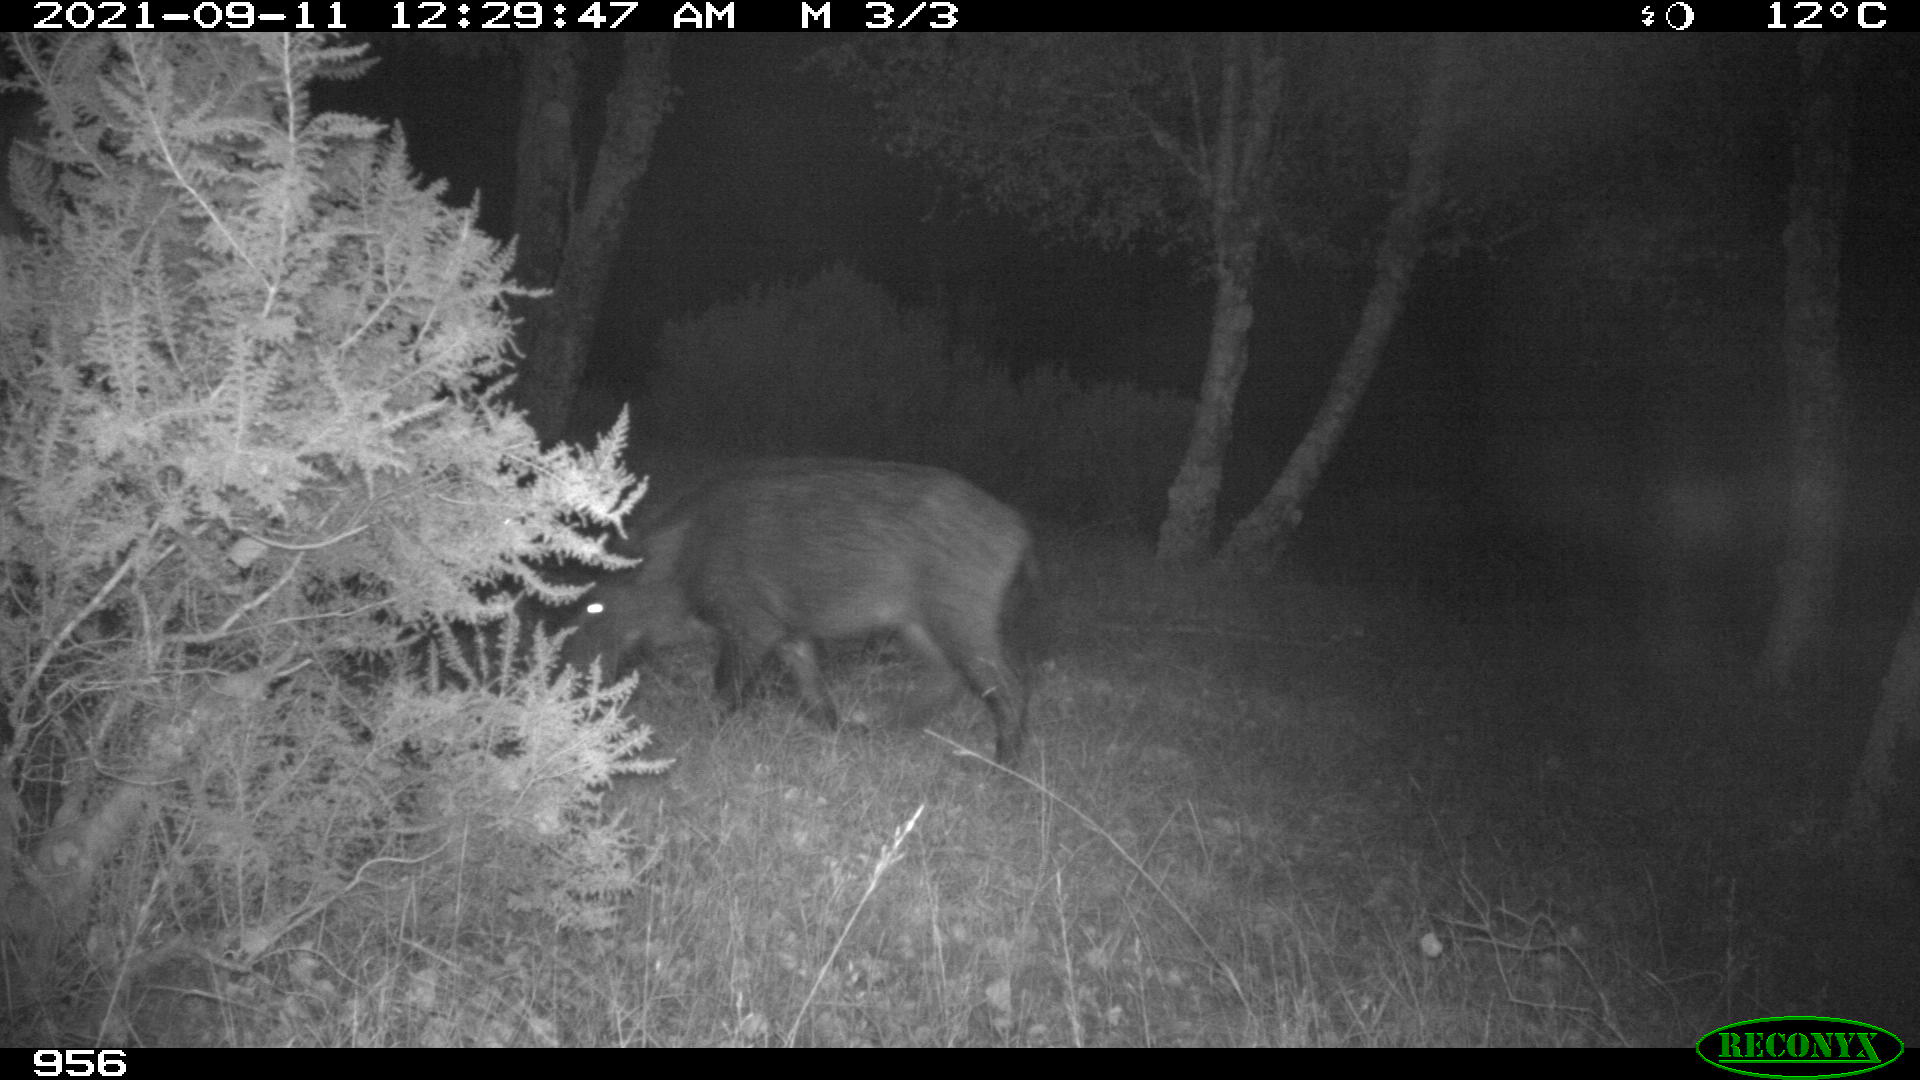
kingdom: Animalia
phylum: Chordata
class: Mammalia
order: Artiodactyla
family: Suidae
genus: Sus
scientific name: Sus scrofa
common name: Wild boar
